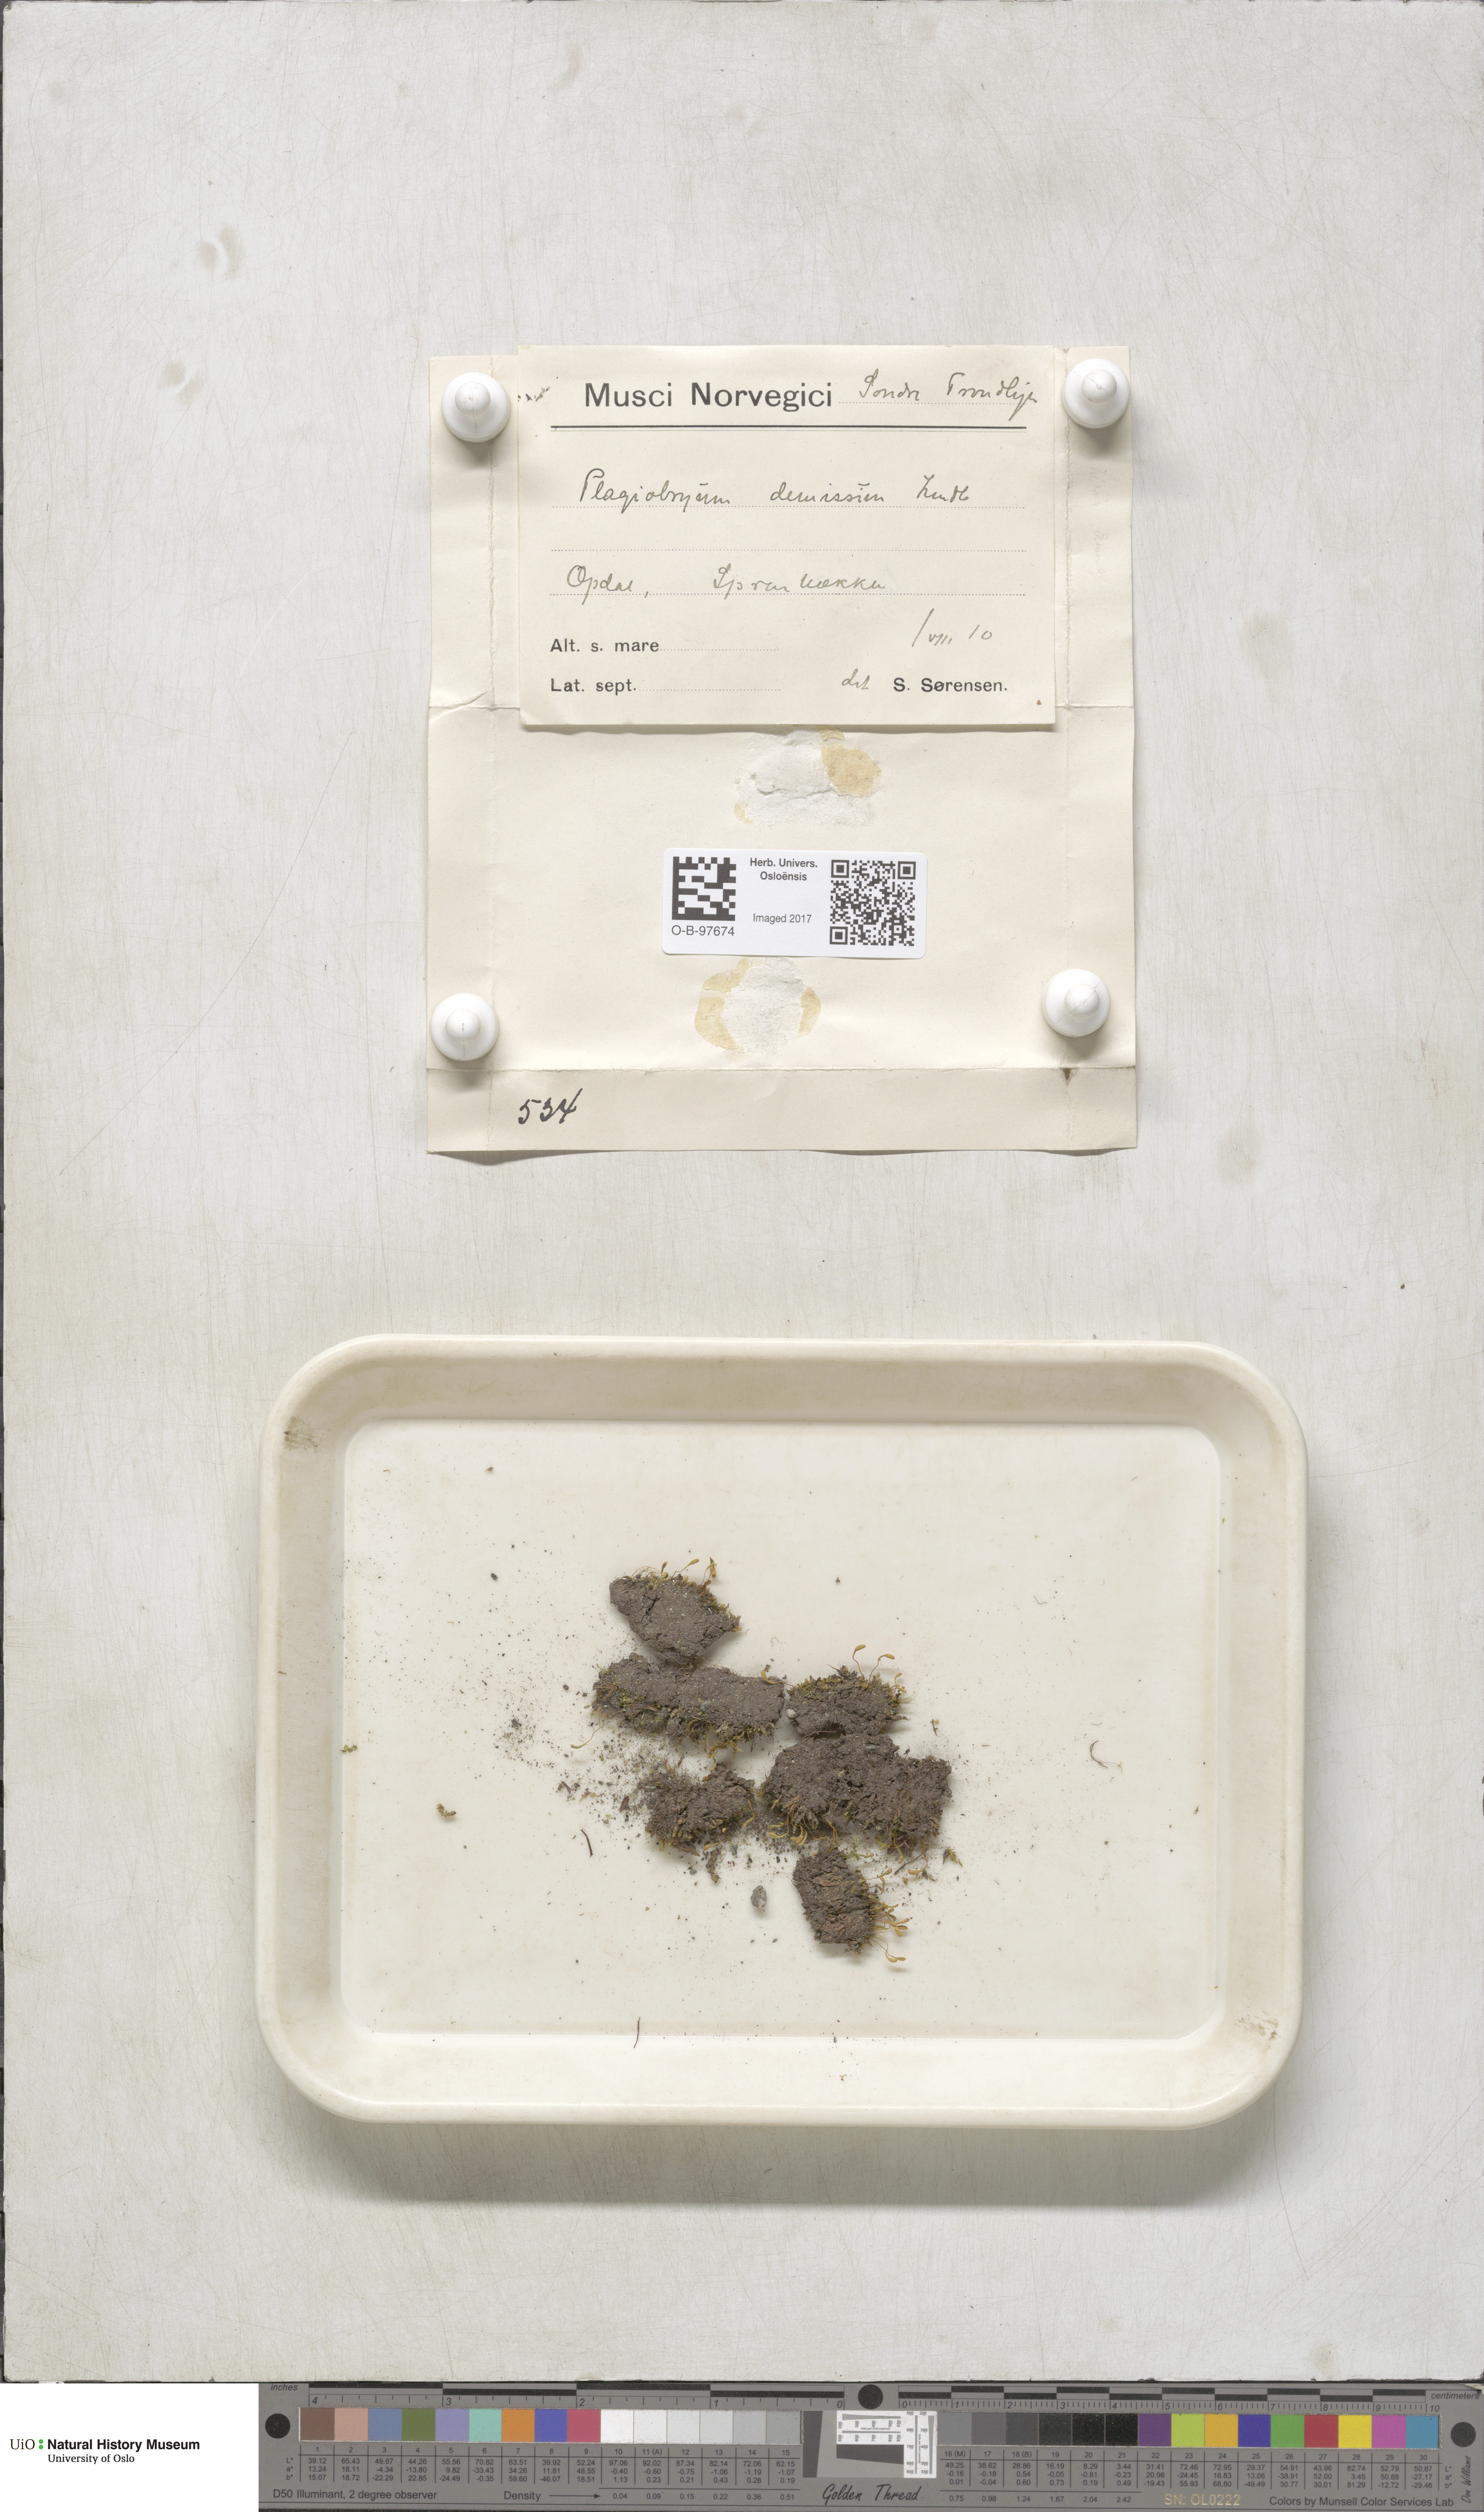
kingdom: Plantae
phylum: Bryophyta
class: Bryopsida
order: Bryales
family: Bryaceae
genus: Plagiobryum
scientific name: Plagiobryum demissum
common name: Drooping hump moss
